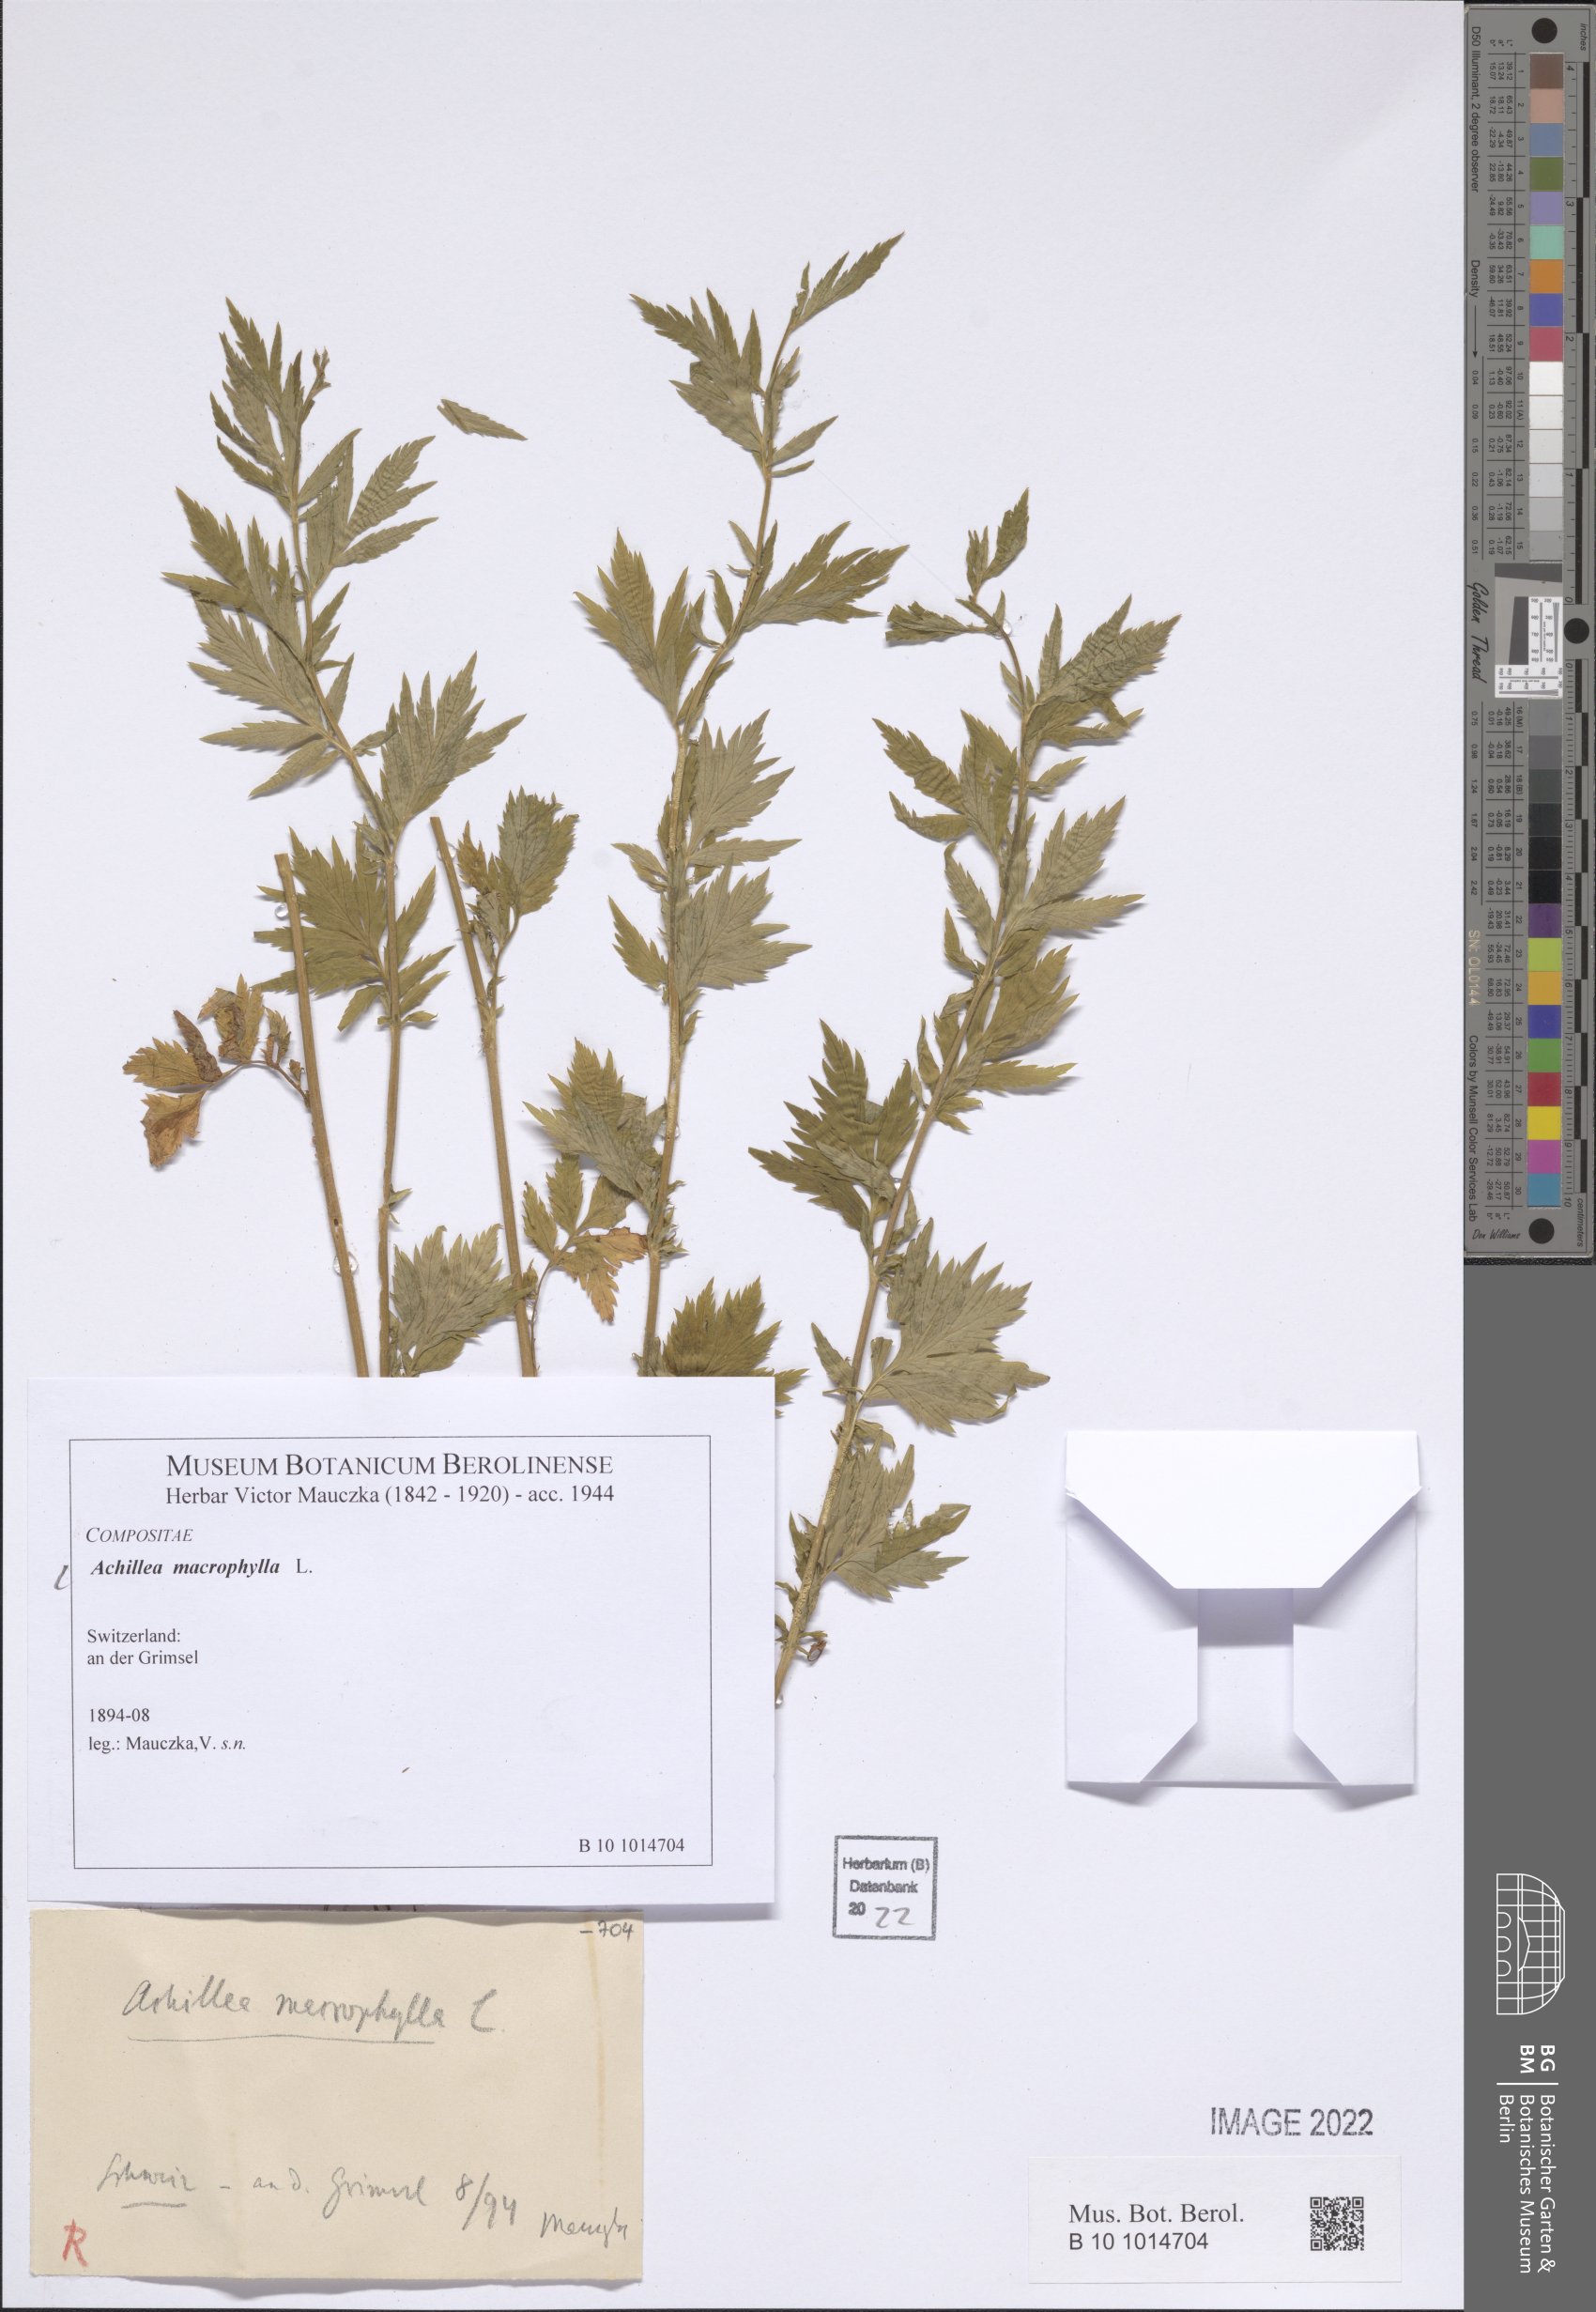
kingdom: Plantae
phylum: Tracheophyta
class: Magnoliopsida
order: Asterales
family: Asteraceae
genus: Achillea
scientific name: Achillea macrophylla
